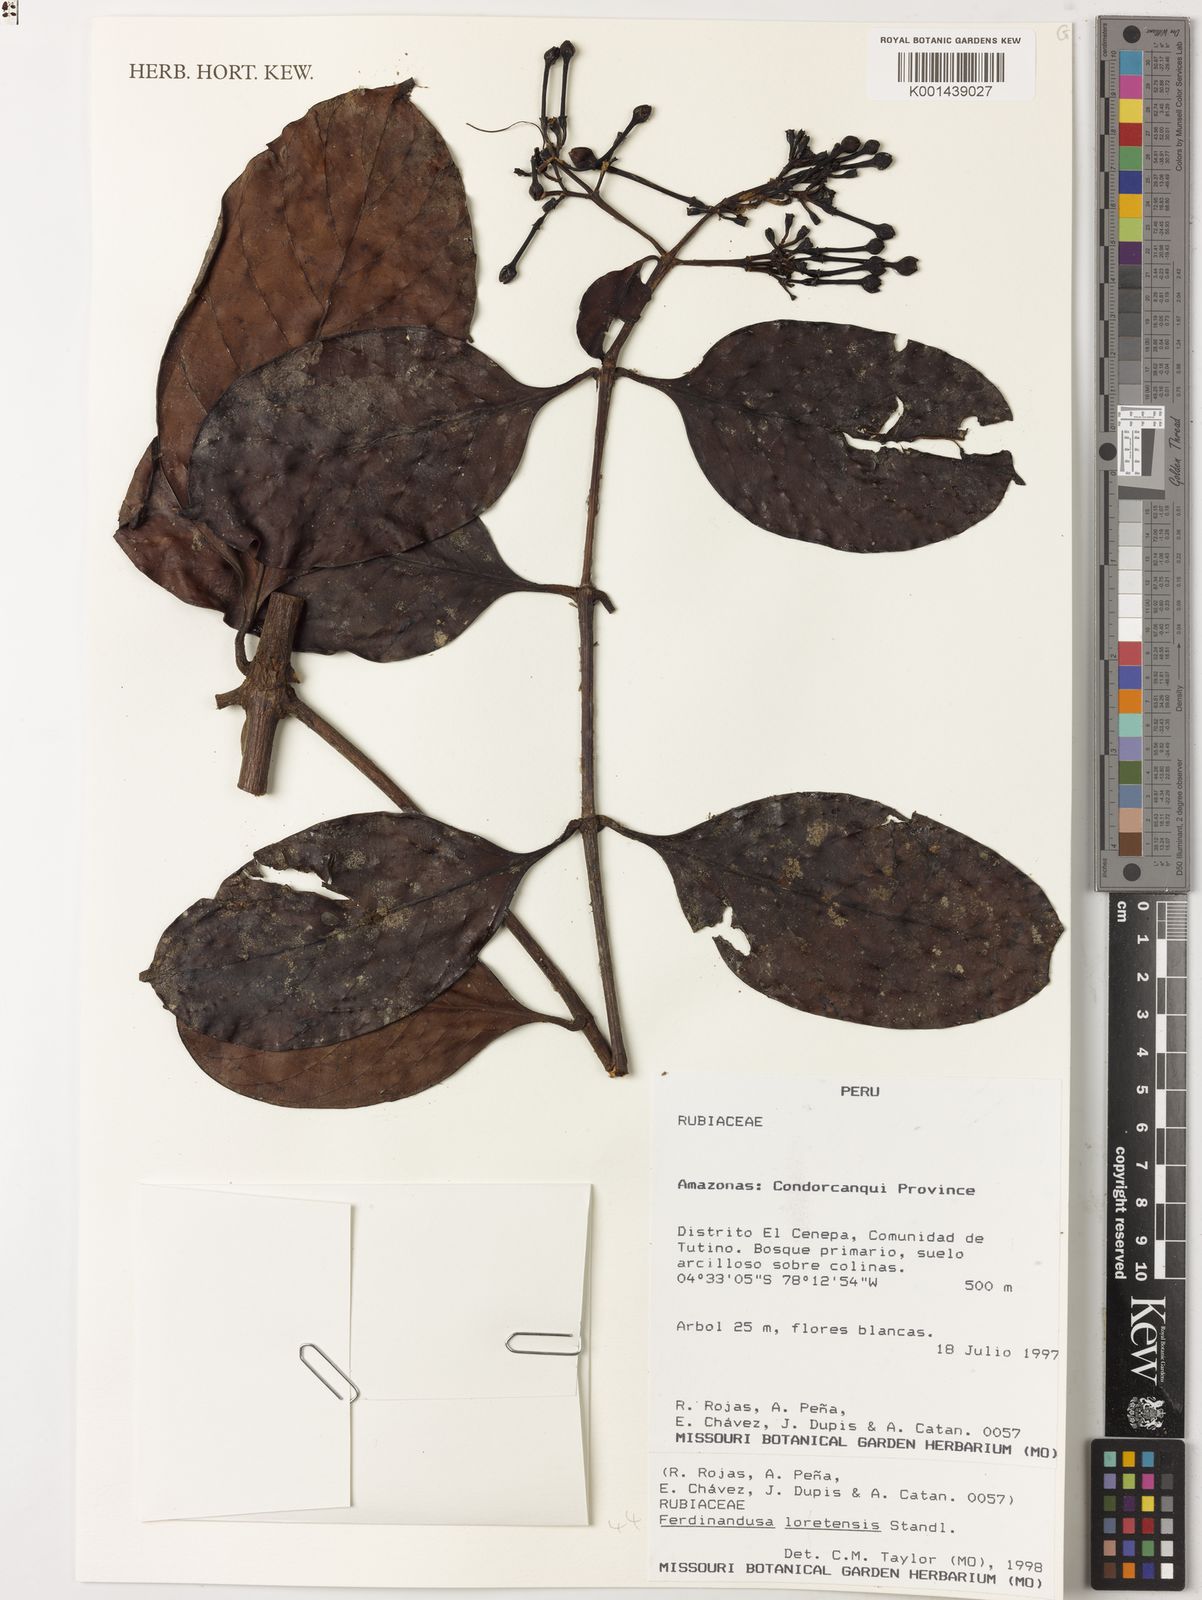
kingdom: Plantae
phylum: Tracheophyta
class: Magnoliopsida
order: Gentianales
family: Rubiaceae
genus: Ferdinandusa
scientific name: Ferdinandusa loretensis
